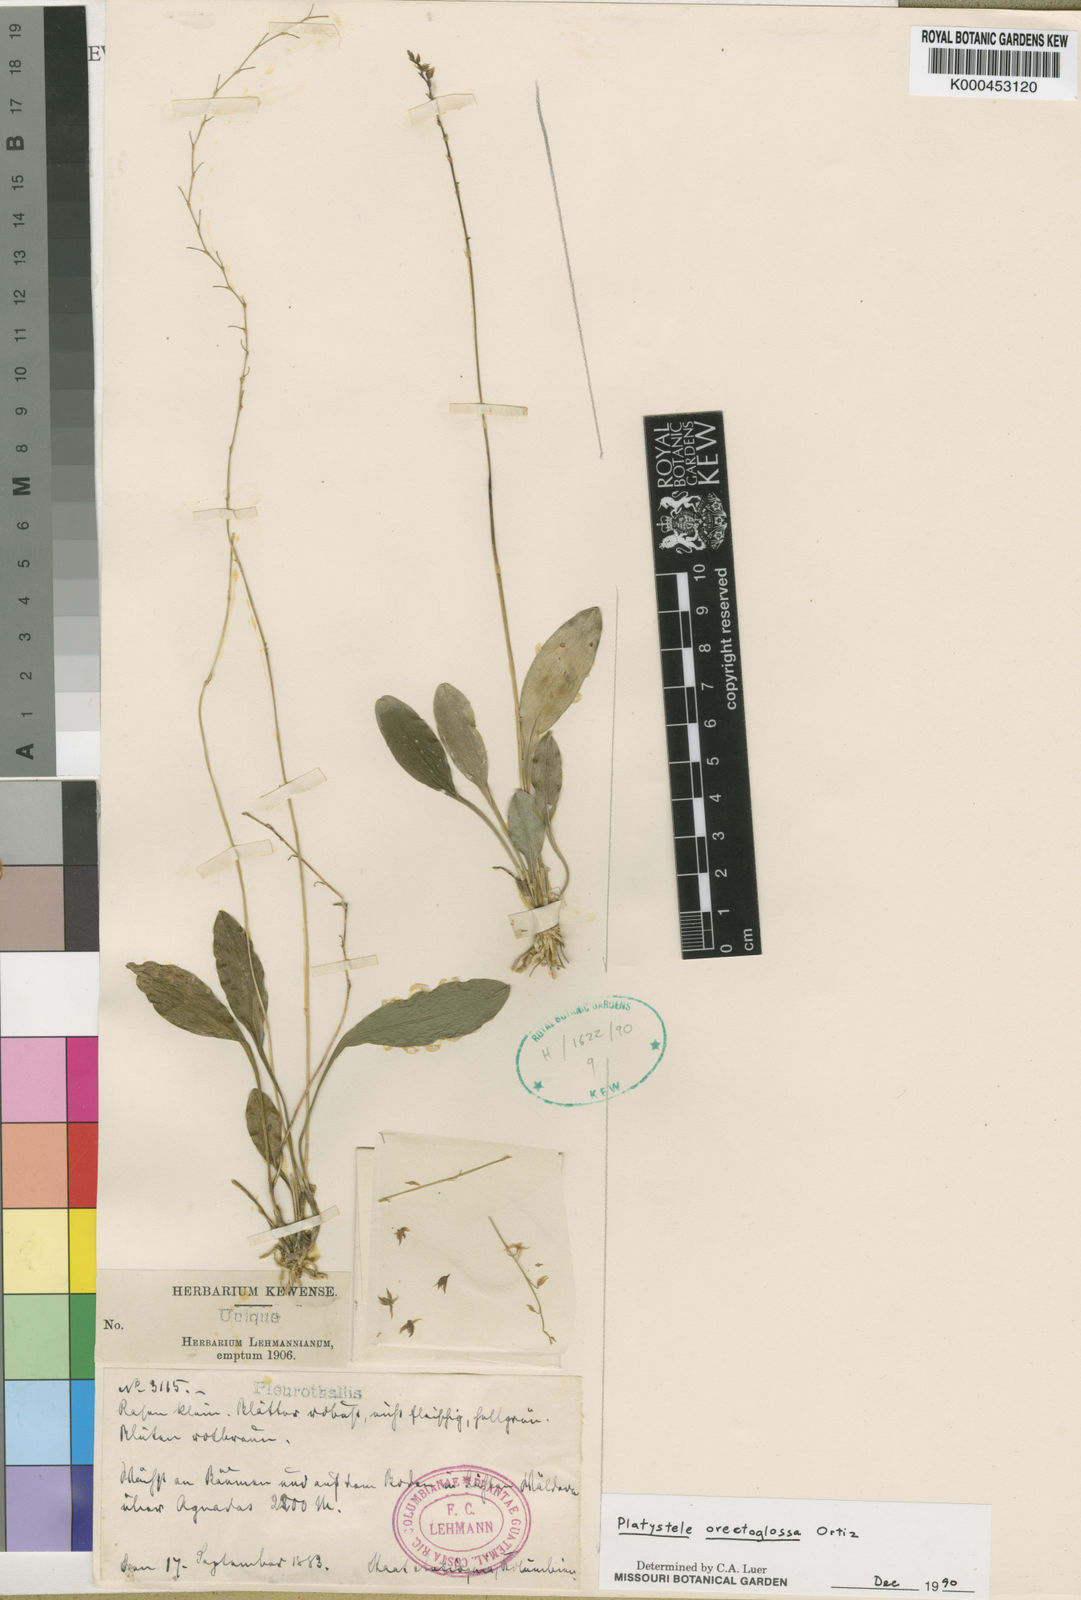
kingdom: Plantae
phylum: Tracheophyta
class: Liliopsida
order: Asparagales
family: Orchidaceae
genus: Platystele
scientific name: Platystele
